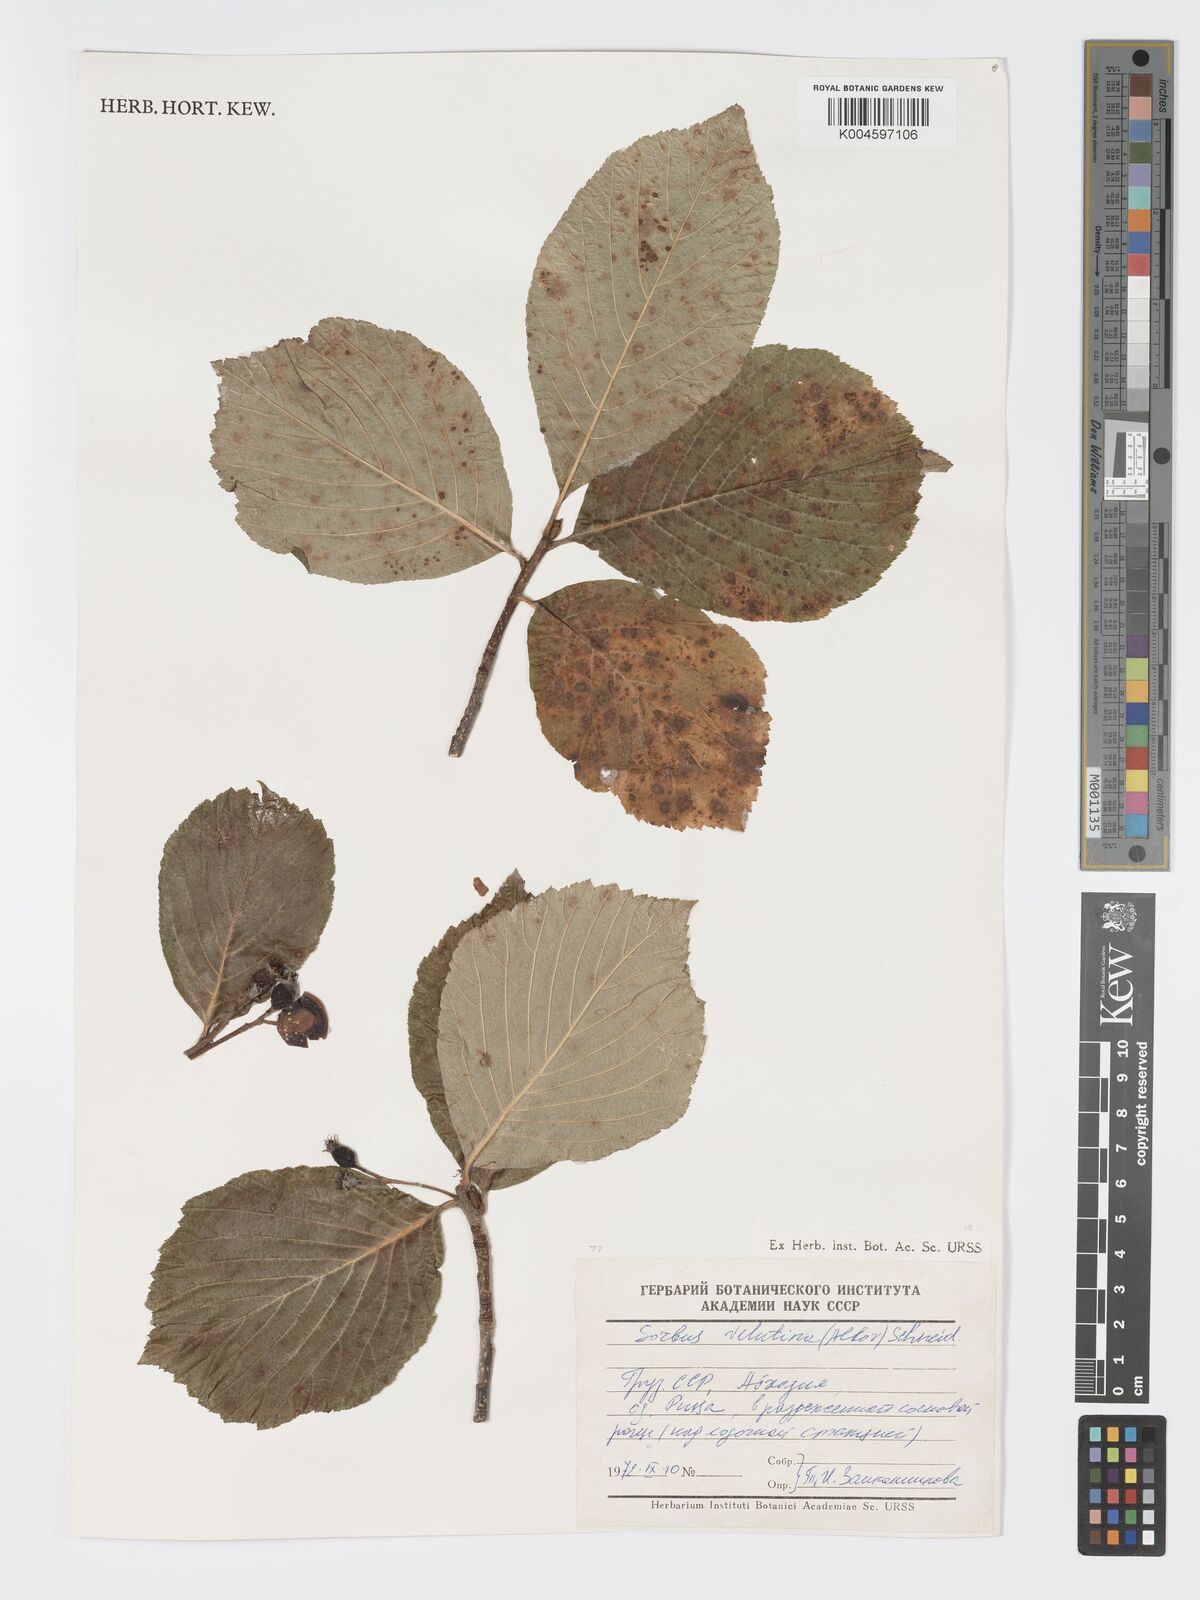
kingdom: Plantae
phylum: Tracheophyta
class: Magnoliopsida
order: Rosales
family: Rosaceae
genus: Sorbus
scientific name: Sorbus subfusca
